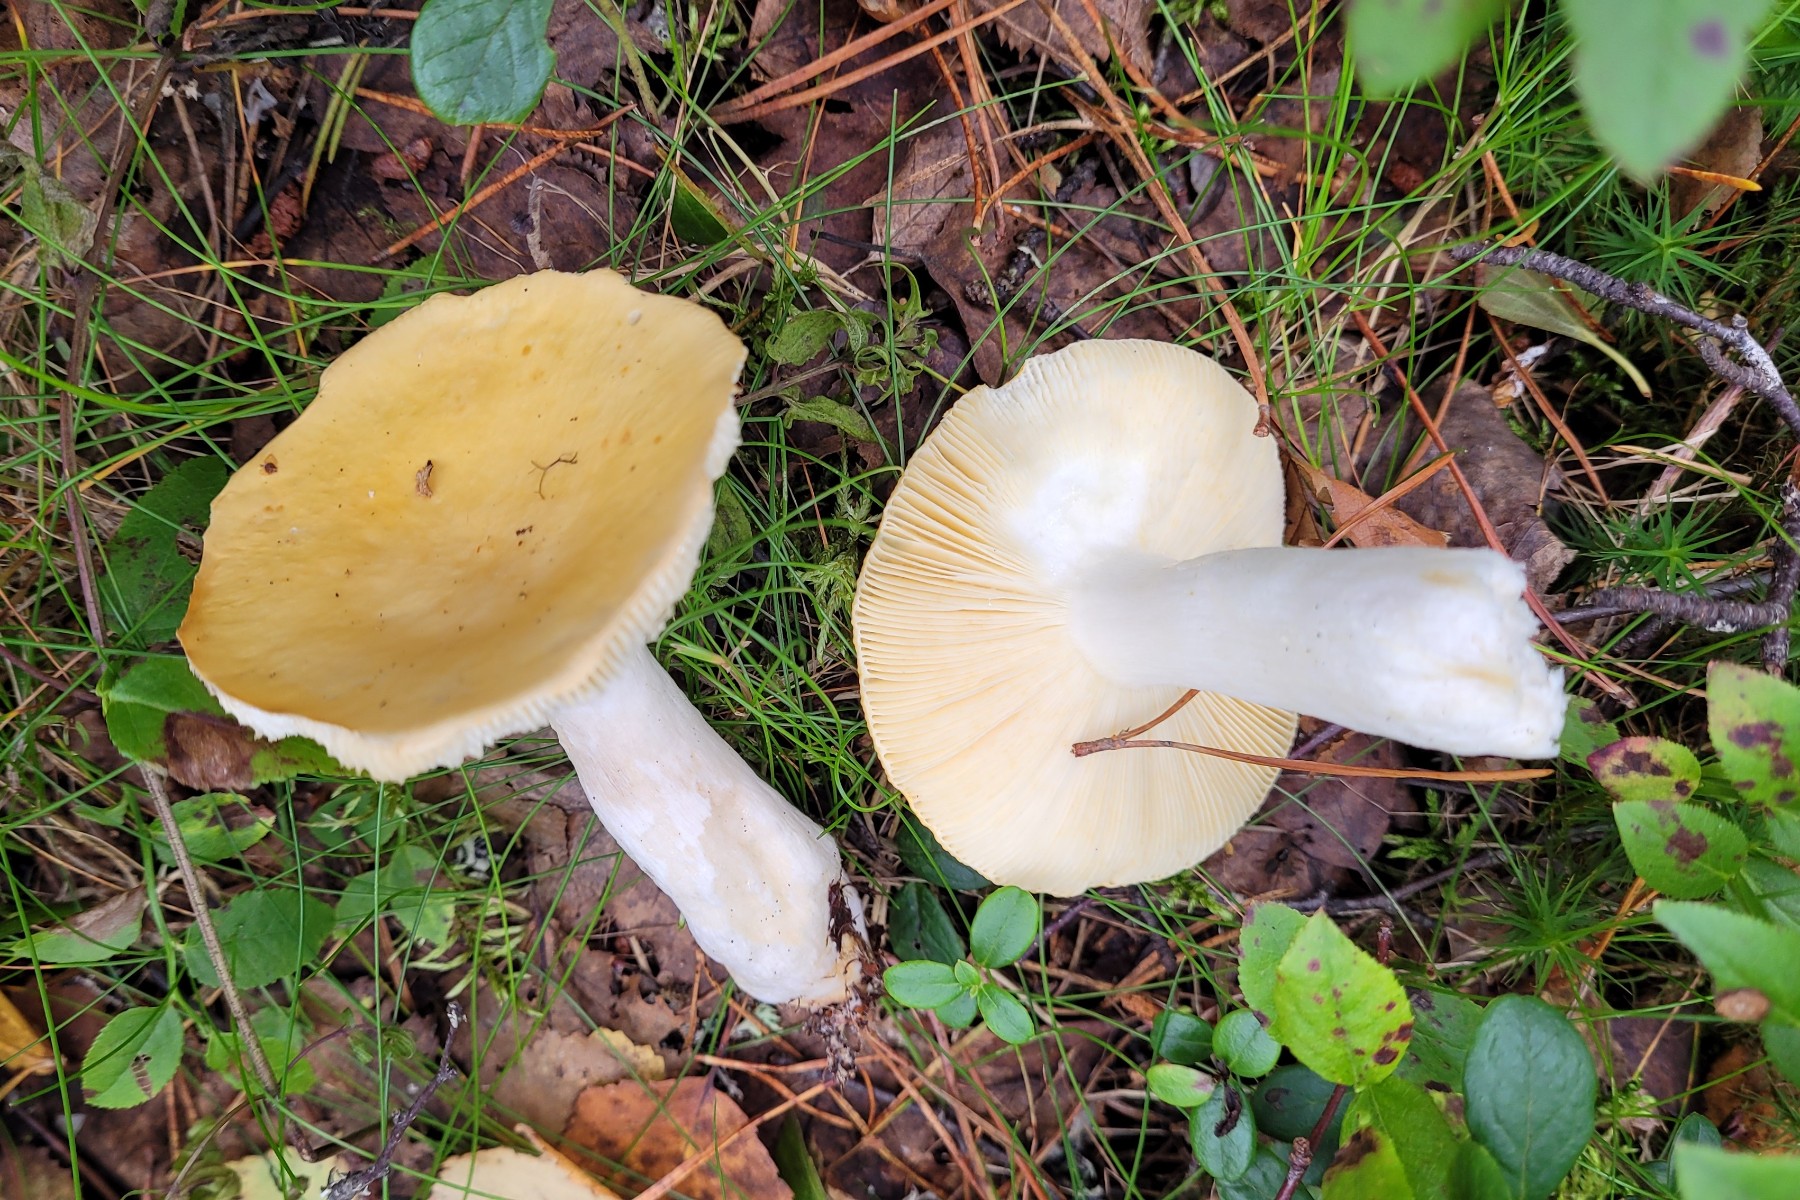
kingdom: Fungi
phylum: Basidiomycota
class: Agaricomycetes
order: Russulales
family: Russulaceae
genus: Russula
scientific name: Russula claroflava
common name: birke-skørhat
